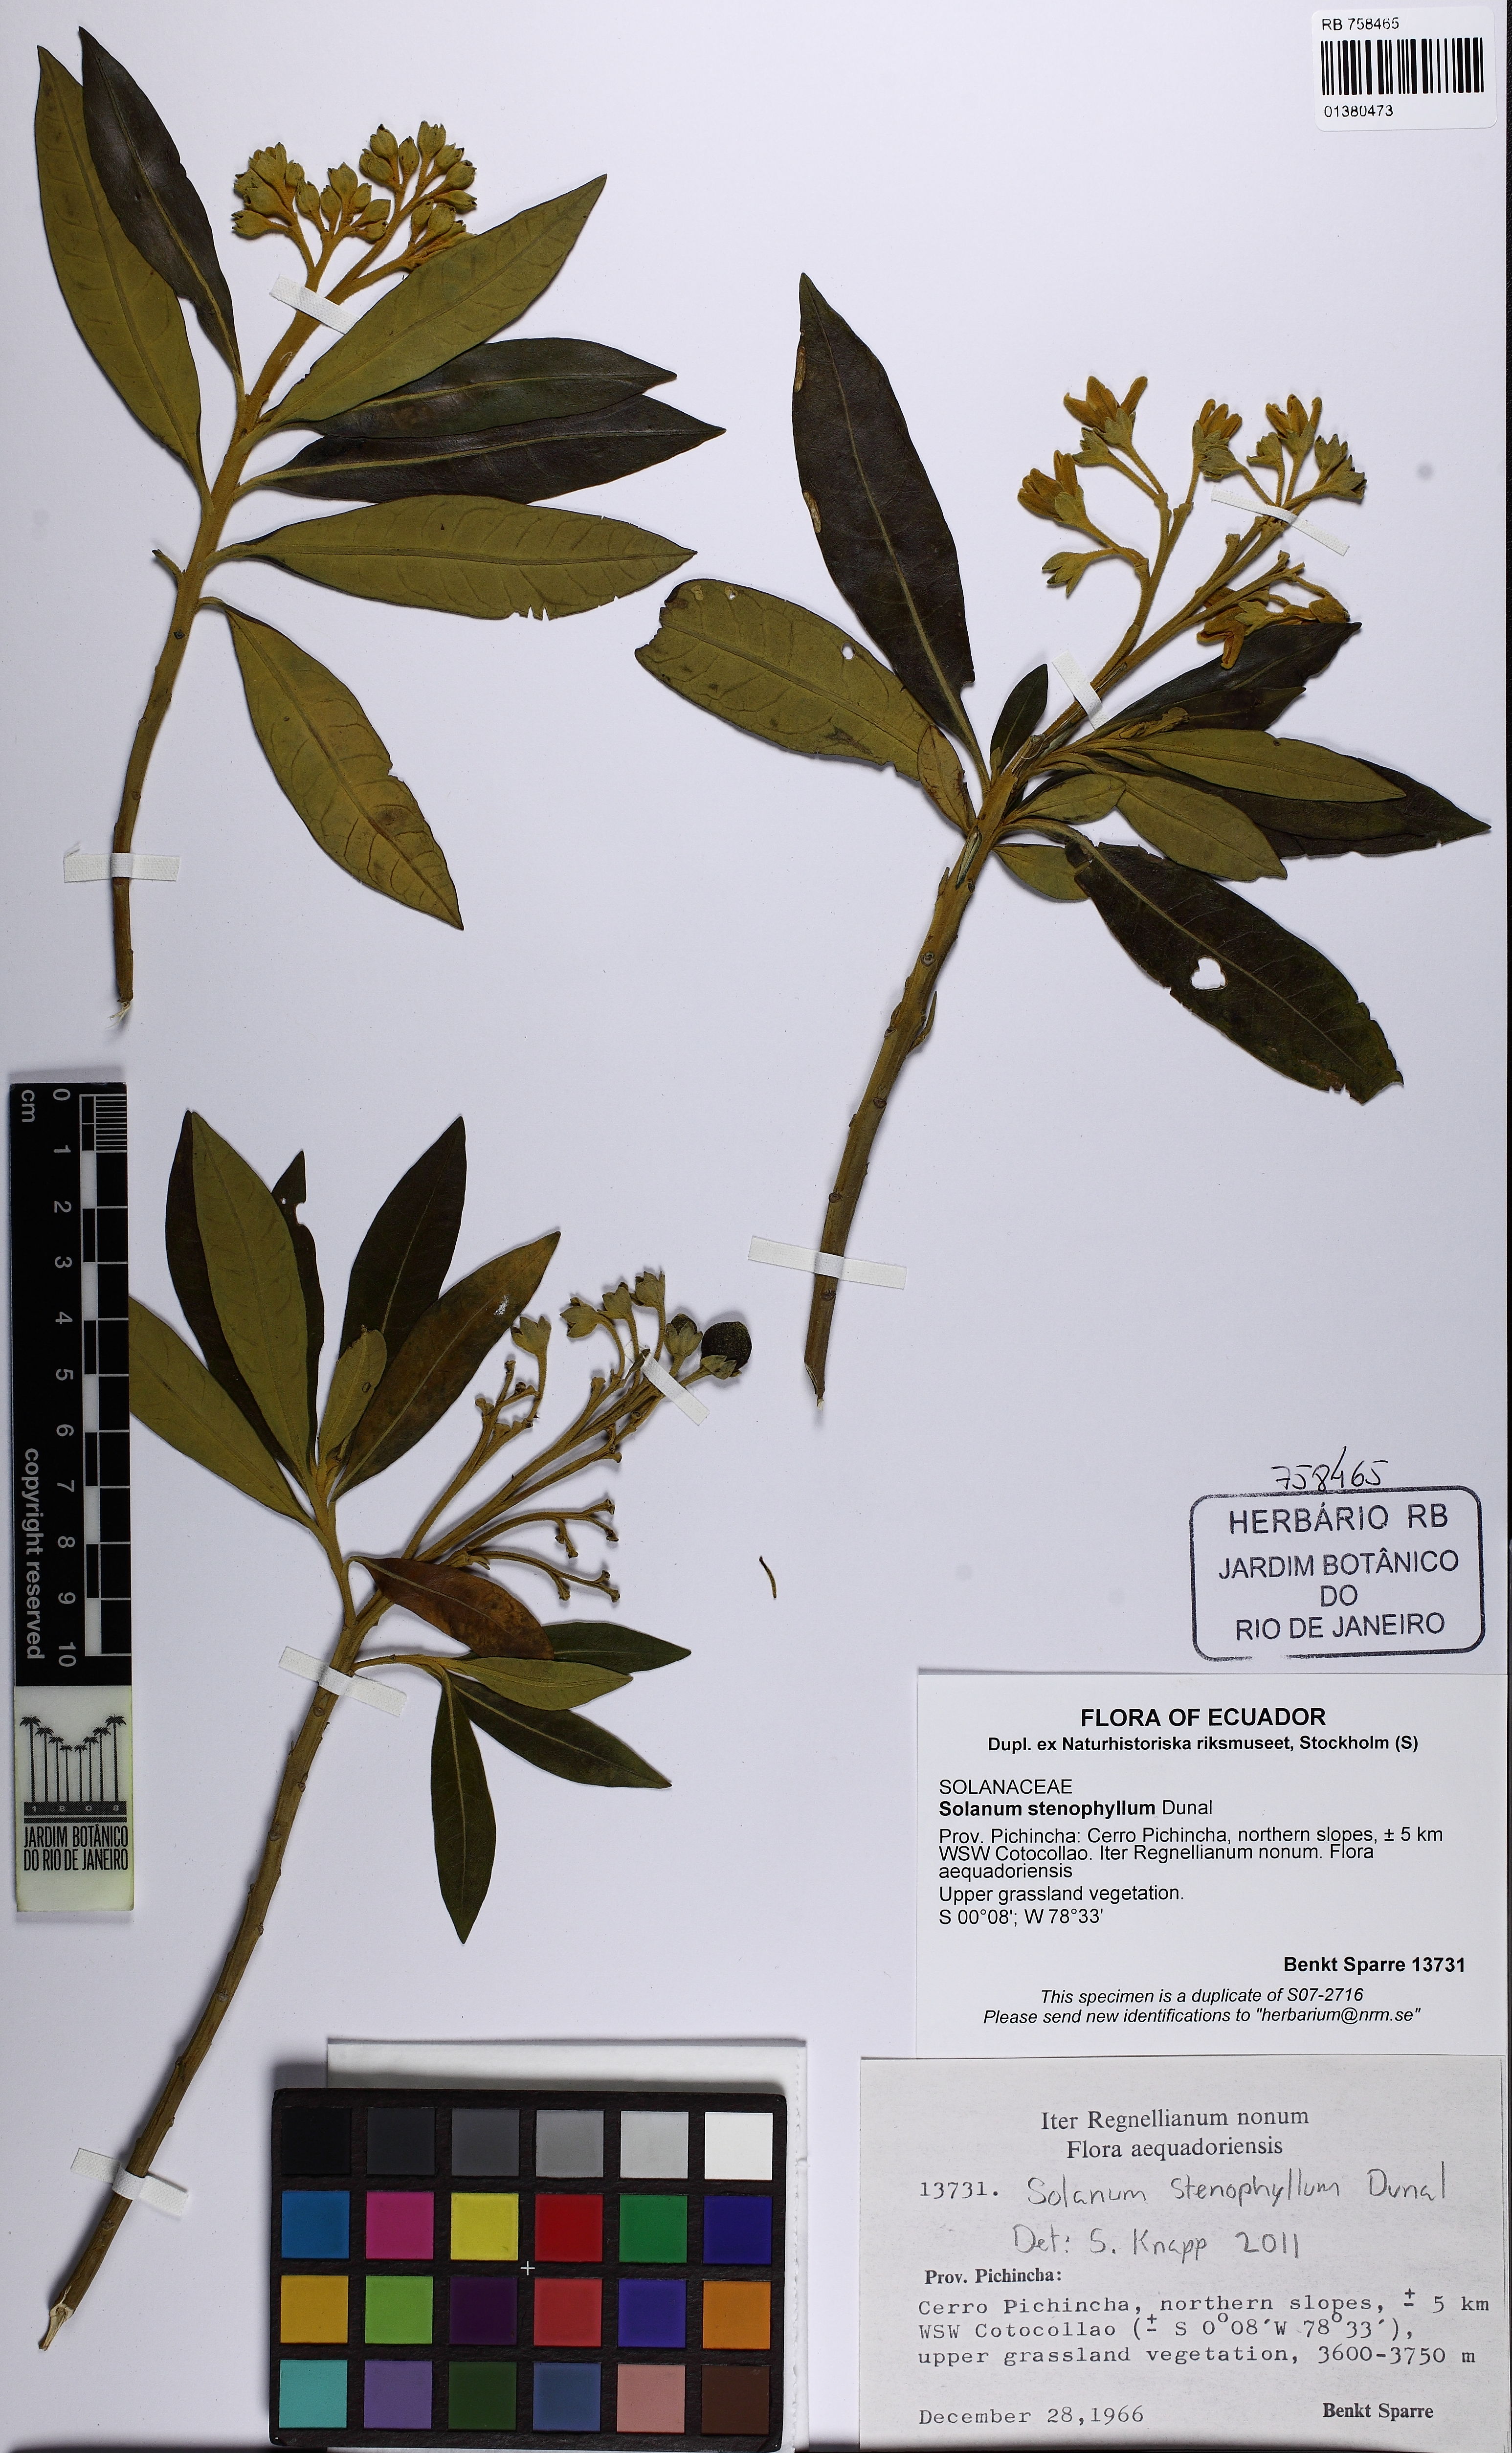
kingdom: Plantae
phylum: Tracheophyta
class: Magnoliopsida
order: Solanales
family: Solanaceae
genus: Solanum
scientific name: Solanum stenophyllum
